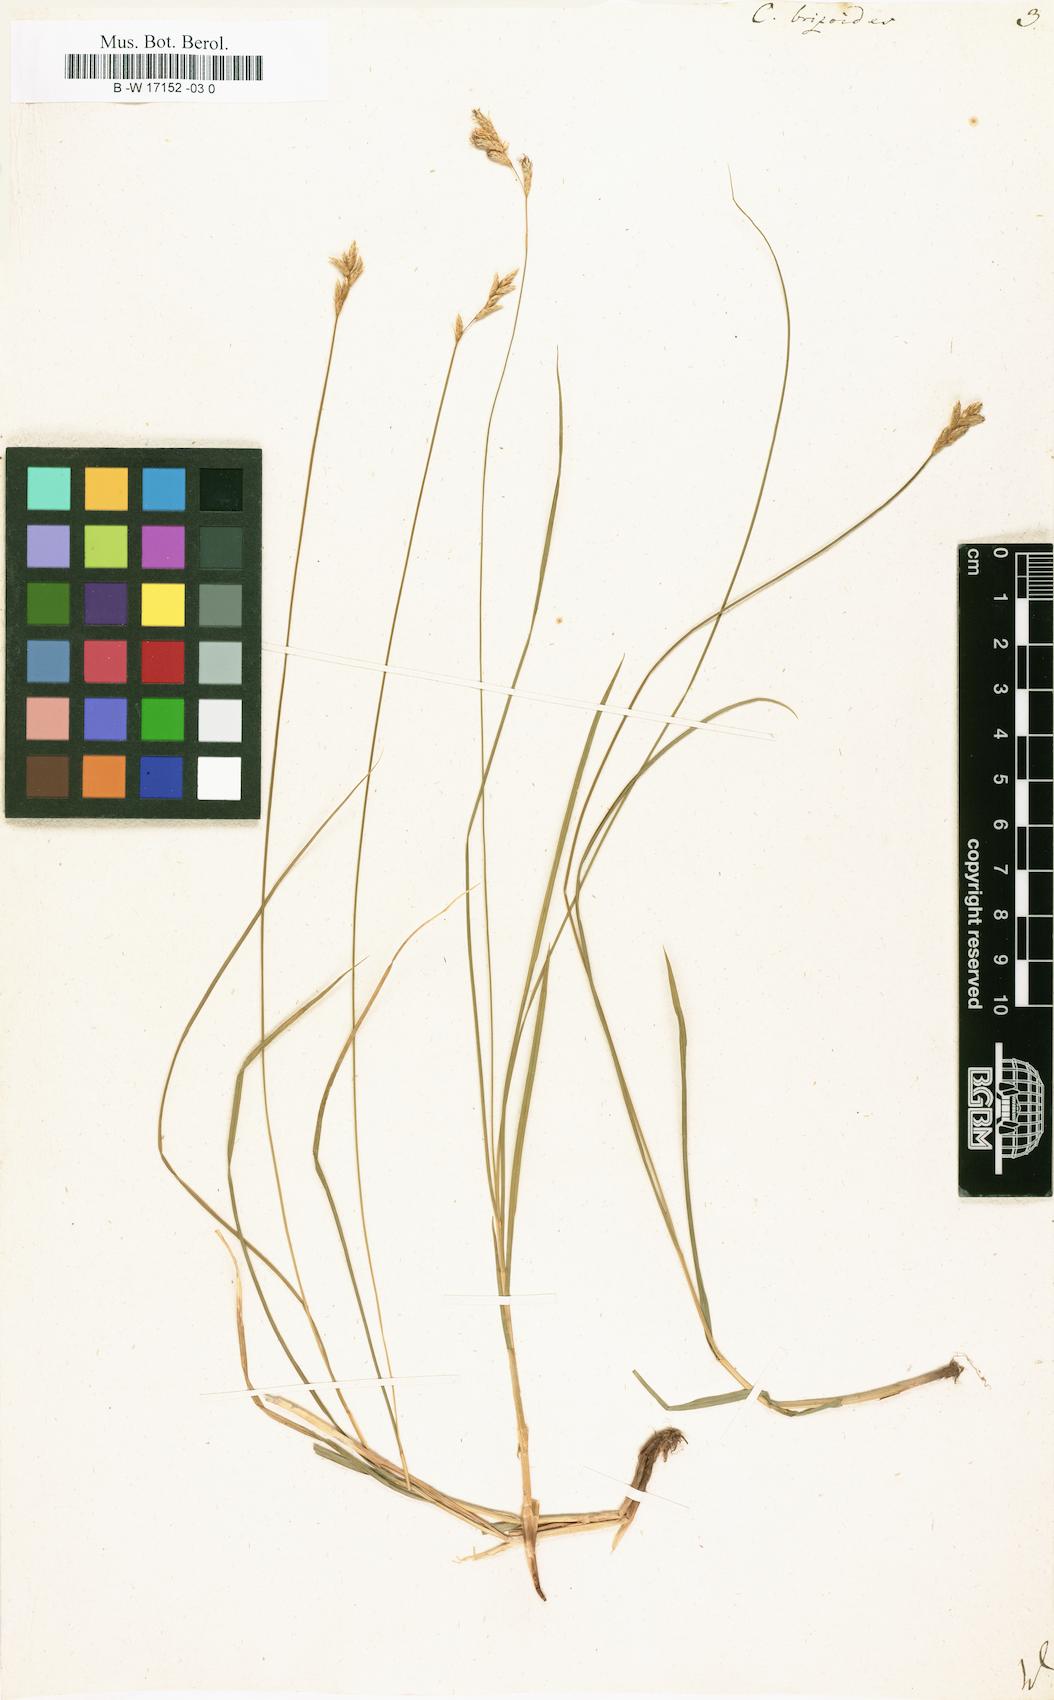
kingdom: Plantae
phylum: Tracheophyta
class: Liliopsida
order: Poales
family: Cyperaceae
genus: Carex
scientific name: Carex brizoides
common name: Quaking-grass sedge
